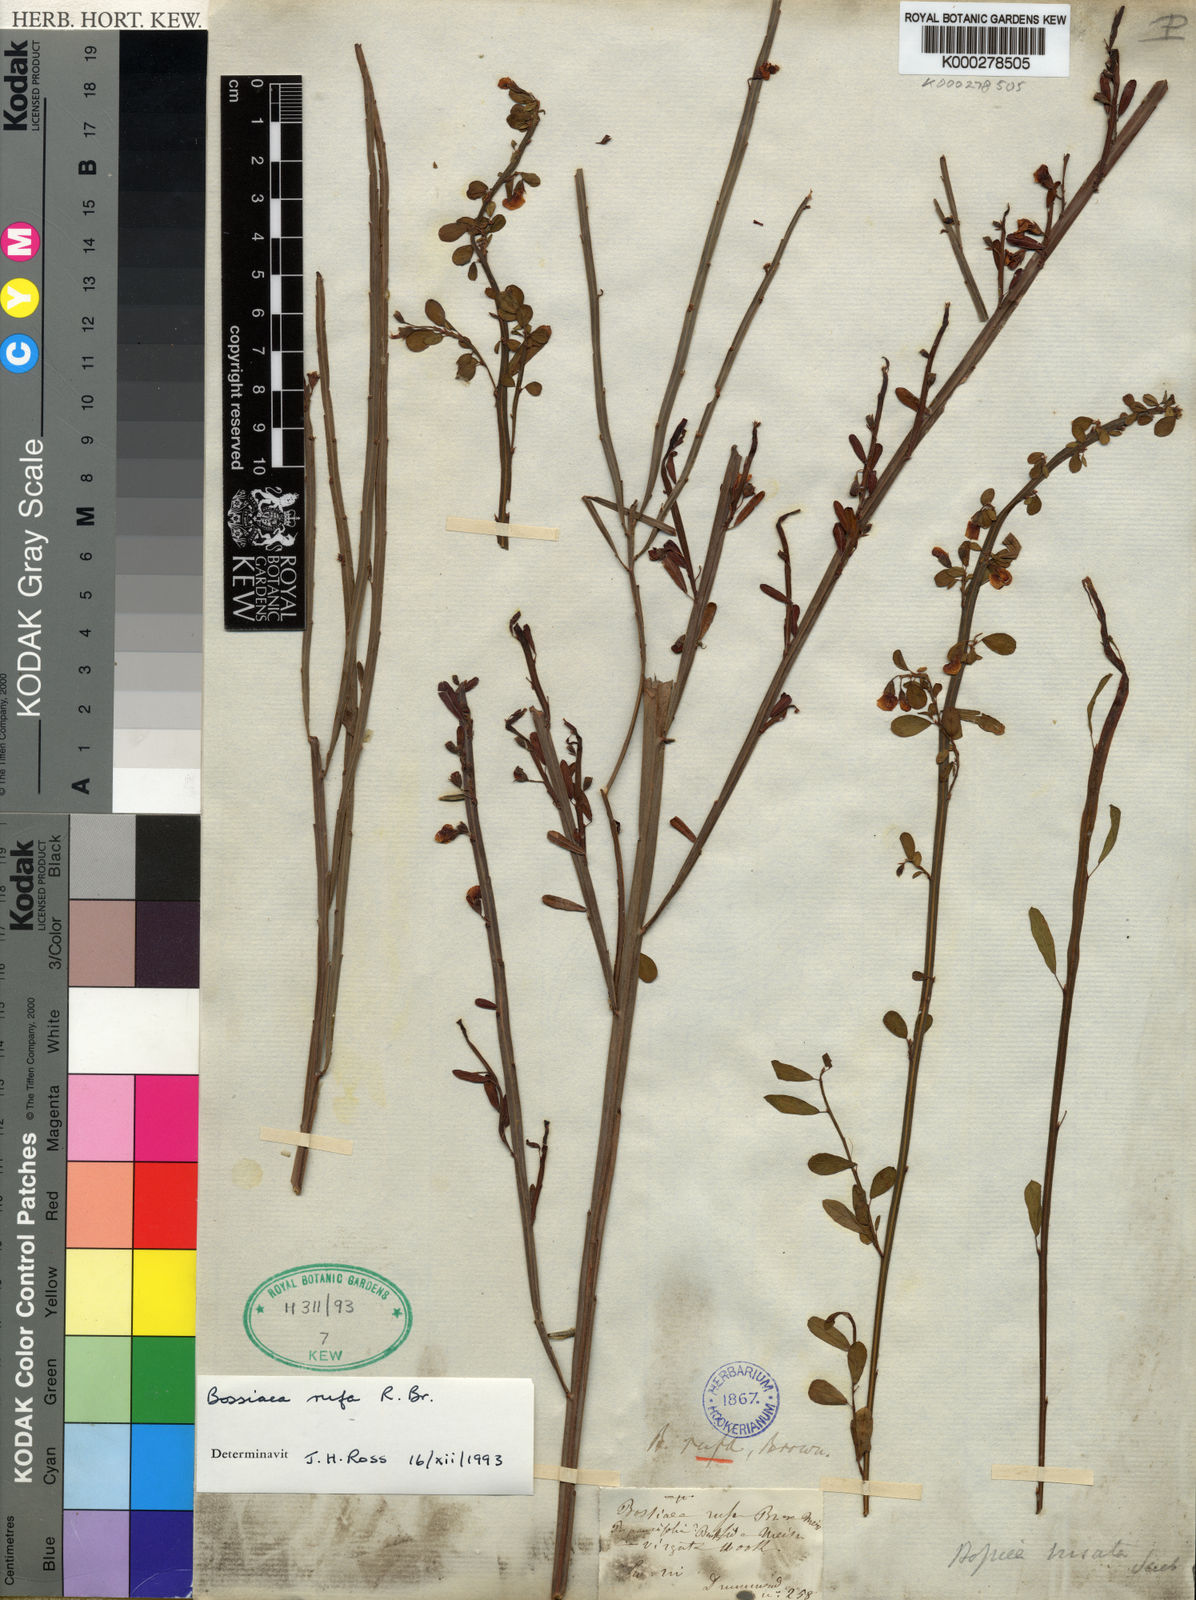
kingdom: Plantae
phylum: Tracheophyta
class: Magnoliopsida
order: Fabales
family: Fabaceae
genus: Bossiaea
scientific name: Bossiaea rufa
